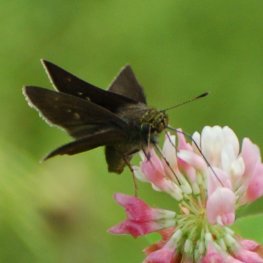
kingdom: Animalia
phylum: Arthropoda
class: Insecta
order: Lepidoptera
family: Hesperiidae
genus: Euphyes
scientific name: Euphyes vestris
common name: Dun Skipper
